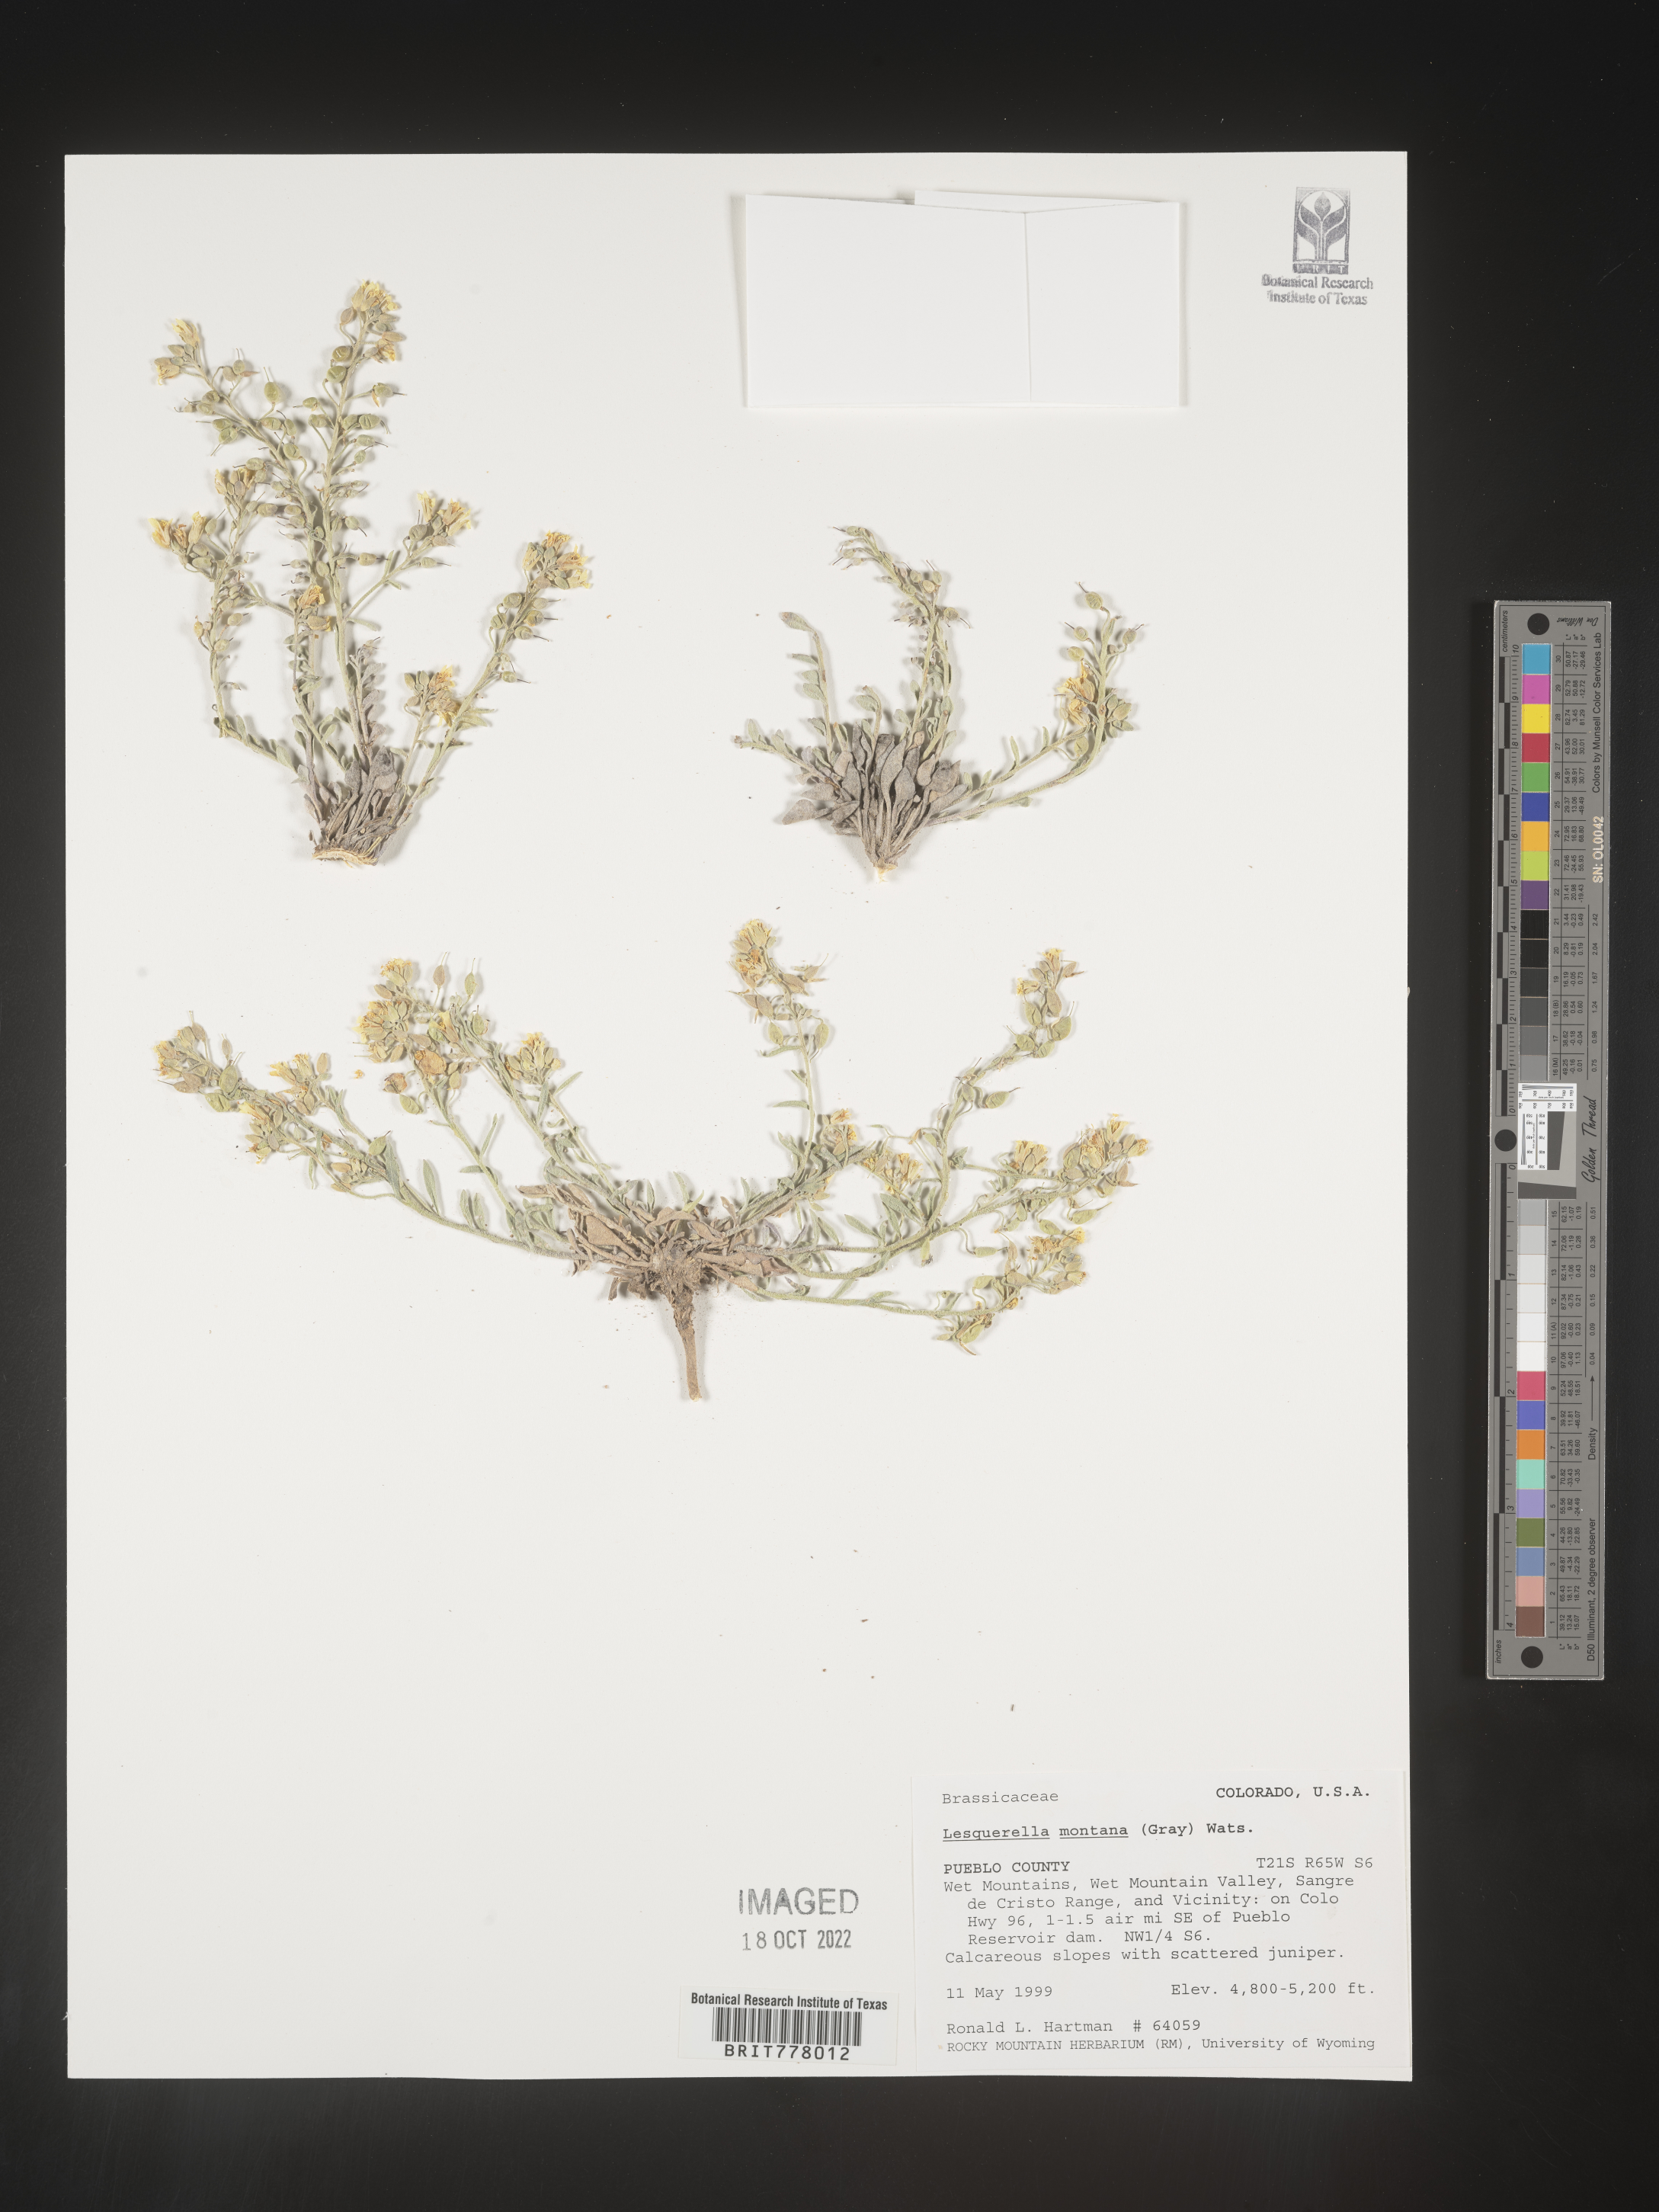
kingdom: Chromista
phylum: Cercozoa
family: Psammonobiotidae
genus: Lesquerella
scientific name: Lesquerella
